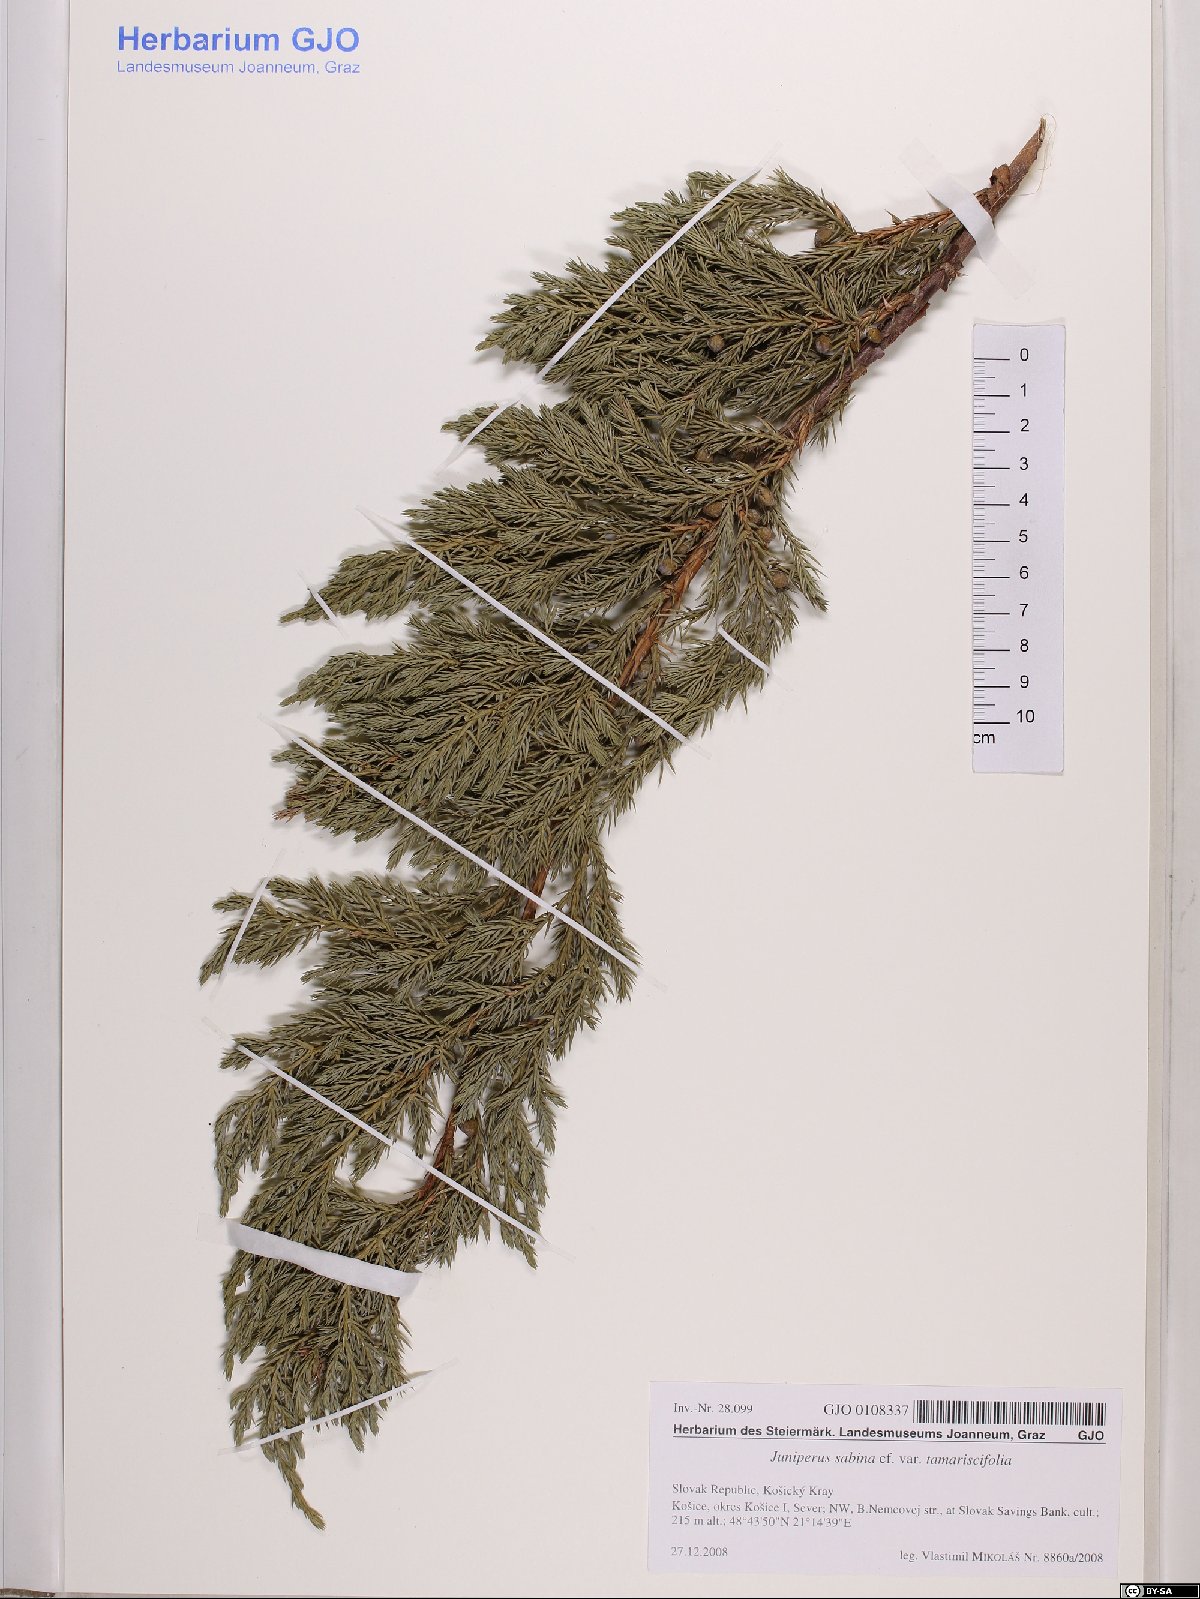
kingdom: Plantae
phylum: Tracheophyta
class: Pinopsida
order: Pinales
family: Cupressaceae
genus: Juniperus
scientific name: Juniperus sabina
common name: Savin
